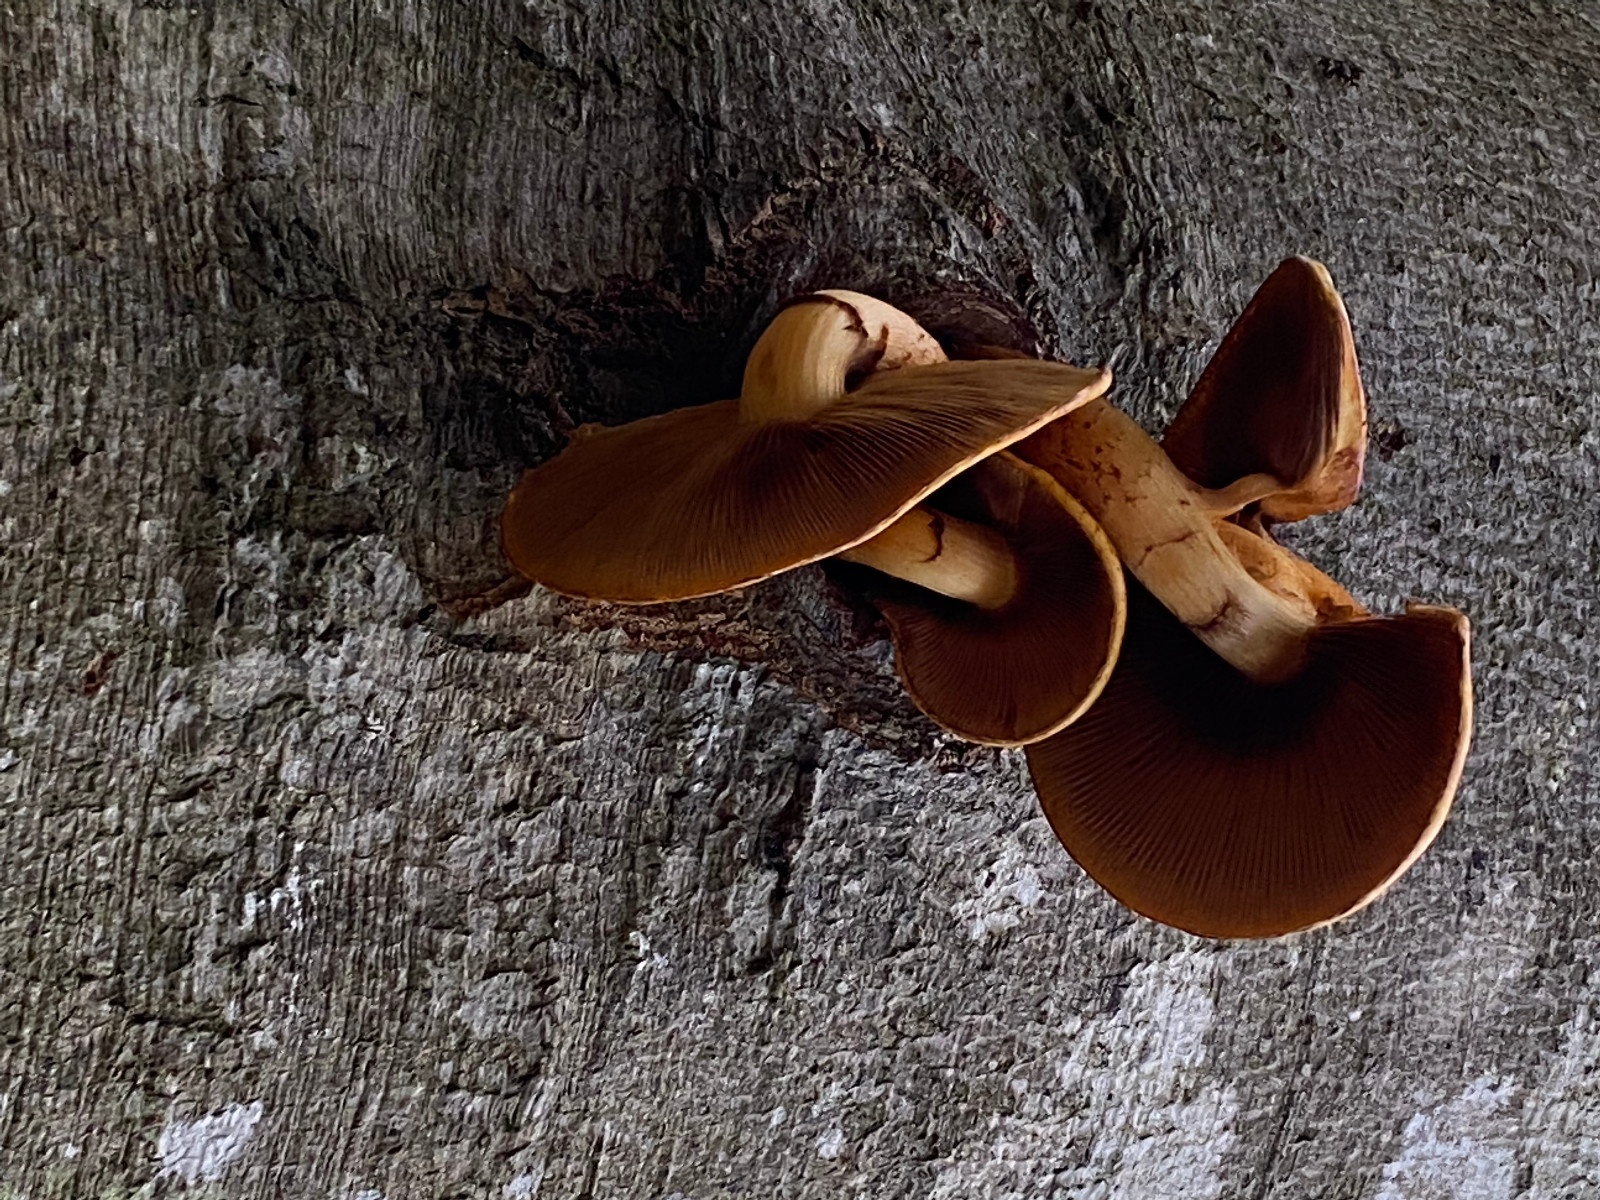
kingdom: Fungi
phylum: Basidiomycota
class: Agaricomycetes
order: Agaricales
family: Hymenogastraceae
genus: Gymnopilus
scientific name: Gymnopilus spectabilis
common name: fibret flammehat
